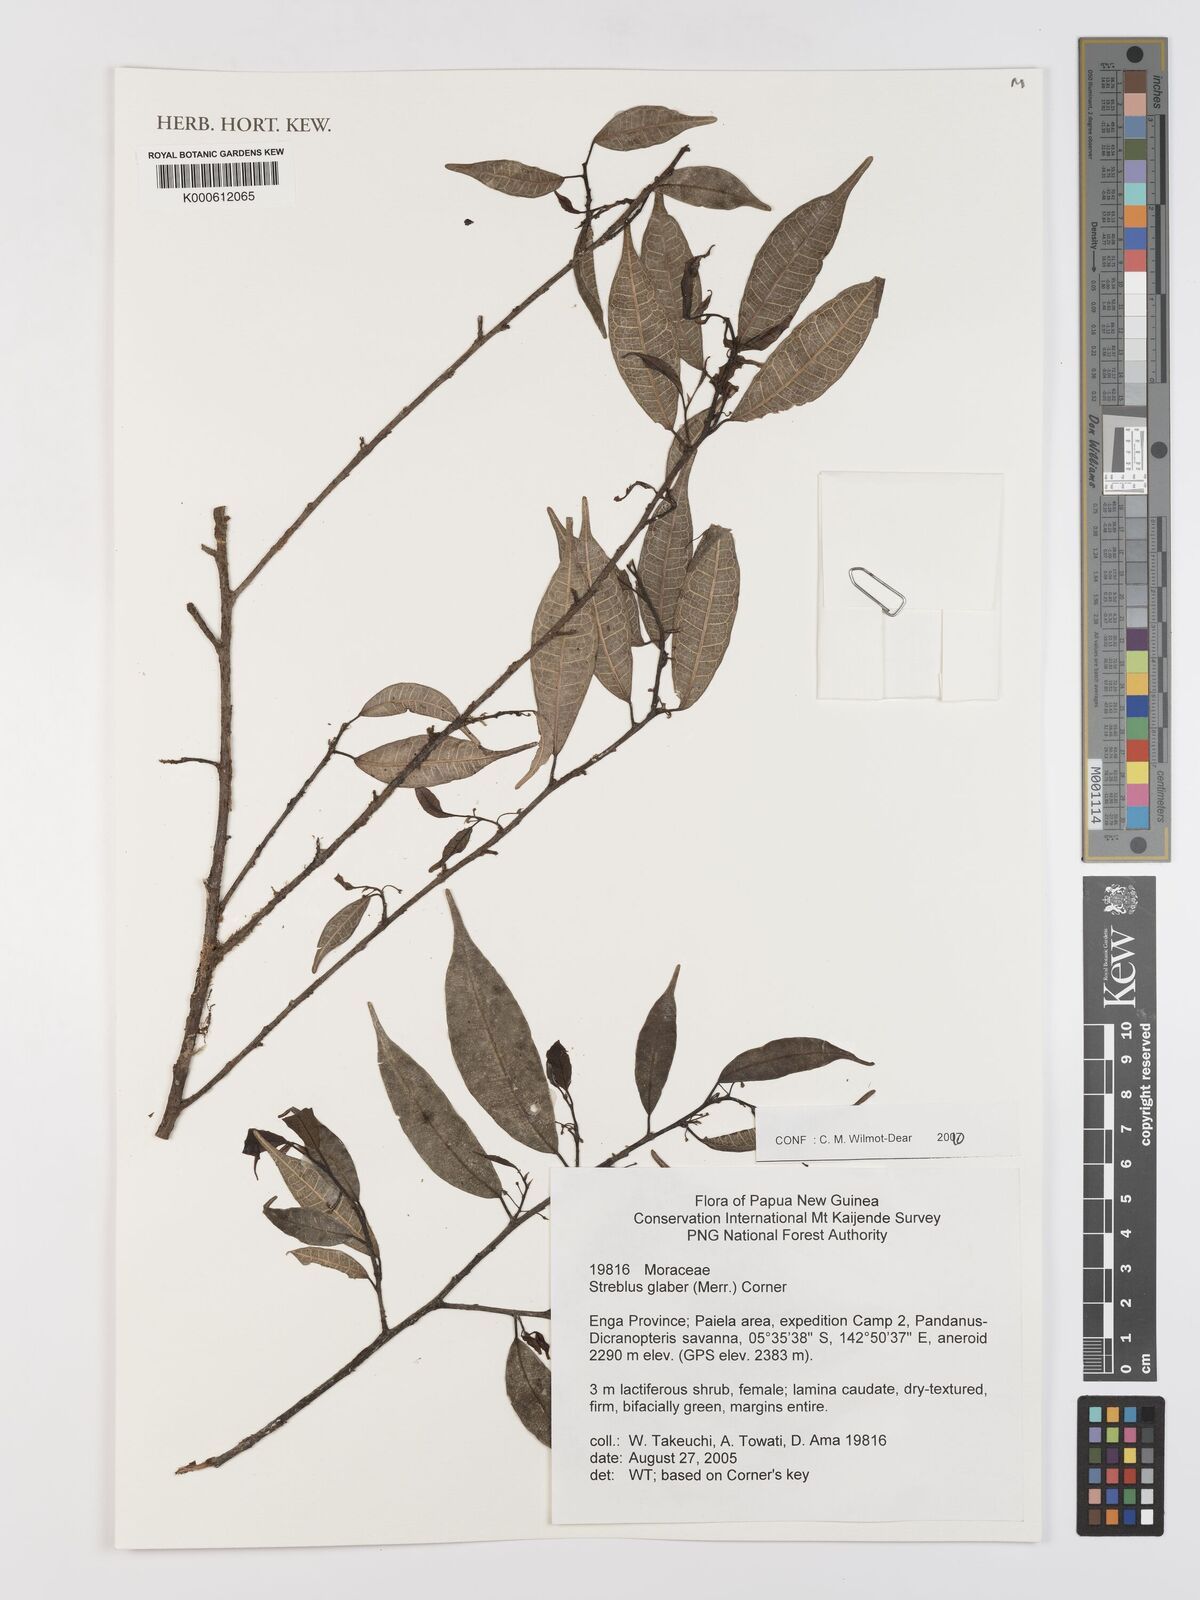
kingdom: Plantae
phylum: Tracheophyta
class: Magnoliopsida
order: Rosales
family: Moraceae
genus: Paratrophis
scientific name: Paratrophis glabra
